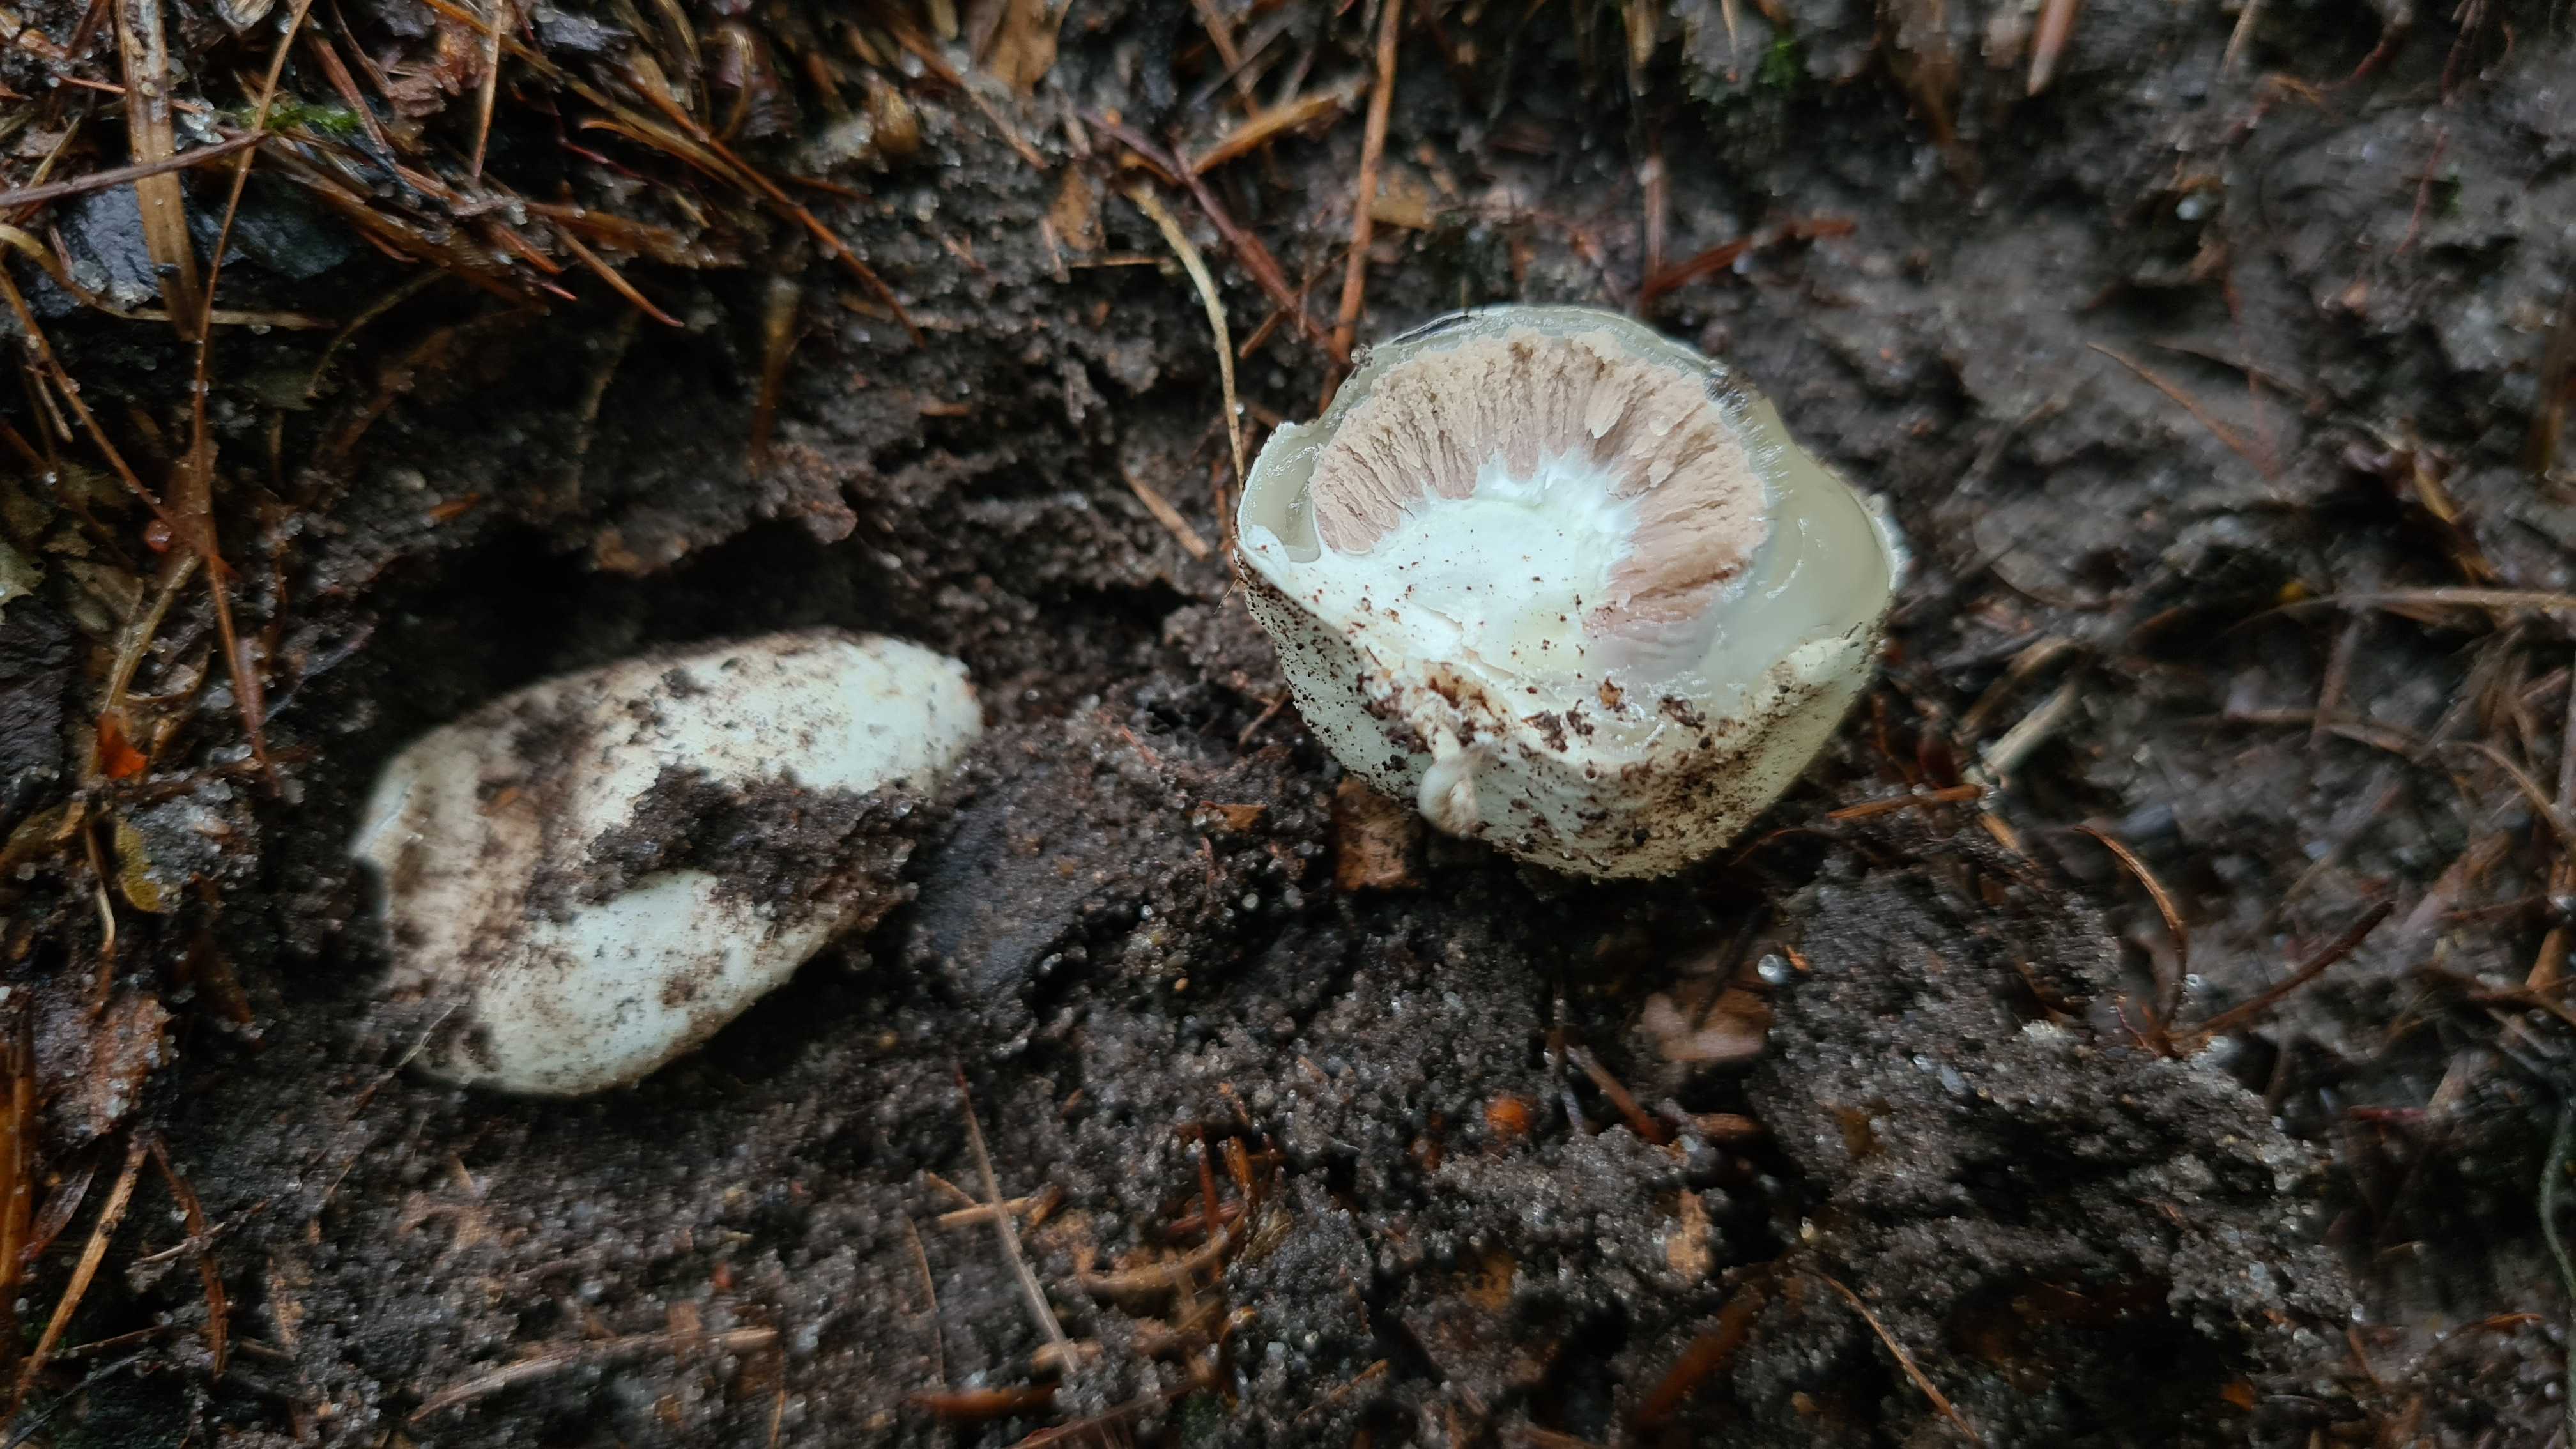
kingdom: Fungi
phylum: Basidiomycota
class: Agaricomycetes
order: Phallales
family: Phallaceae
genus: Phallus
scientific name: Phallus impudicus
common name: almindelig stinksvamp
